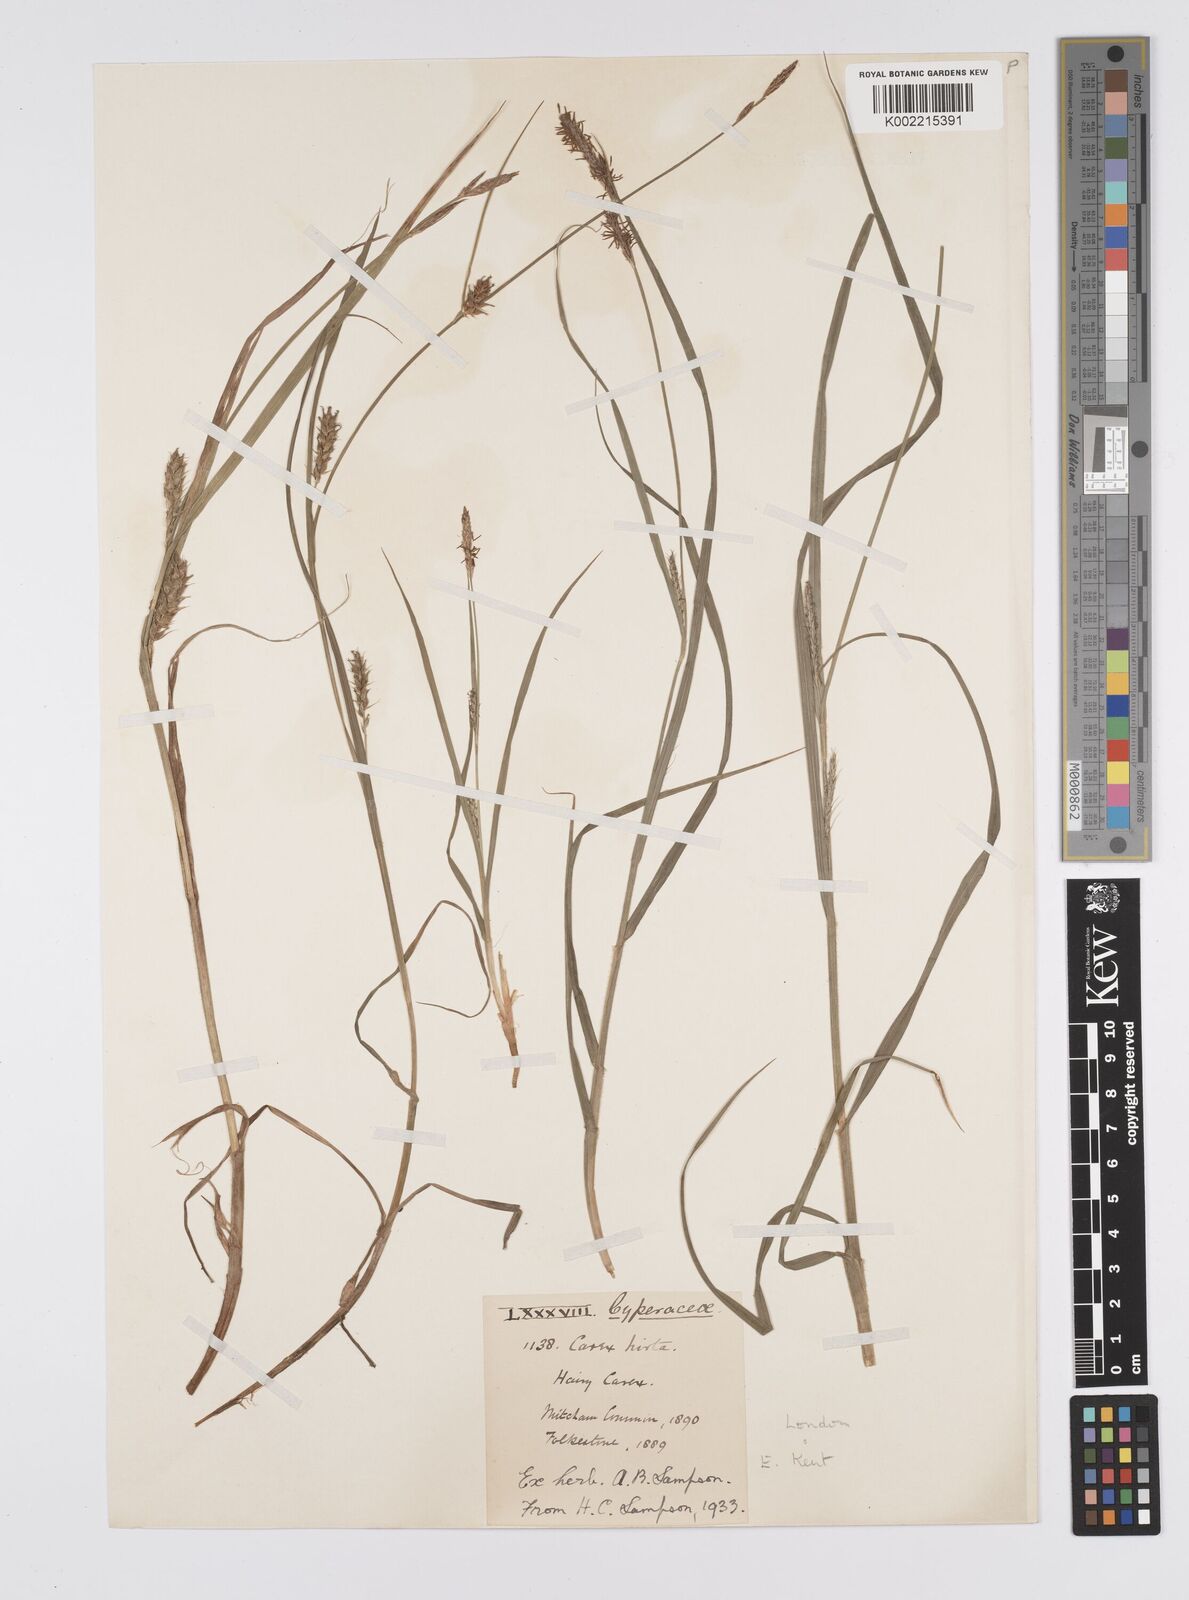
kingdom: Plantae
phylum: Tracheophyta
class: Liliopsida
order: Poales
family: Cyperaceae
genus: Carex
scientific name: Carex hirta
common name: Hairy sedge
